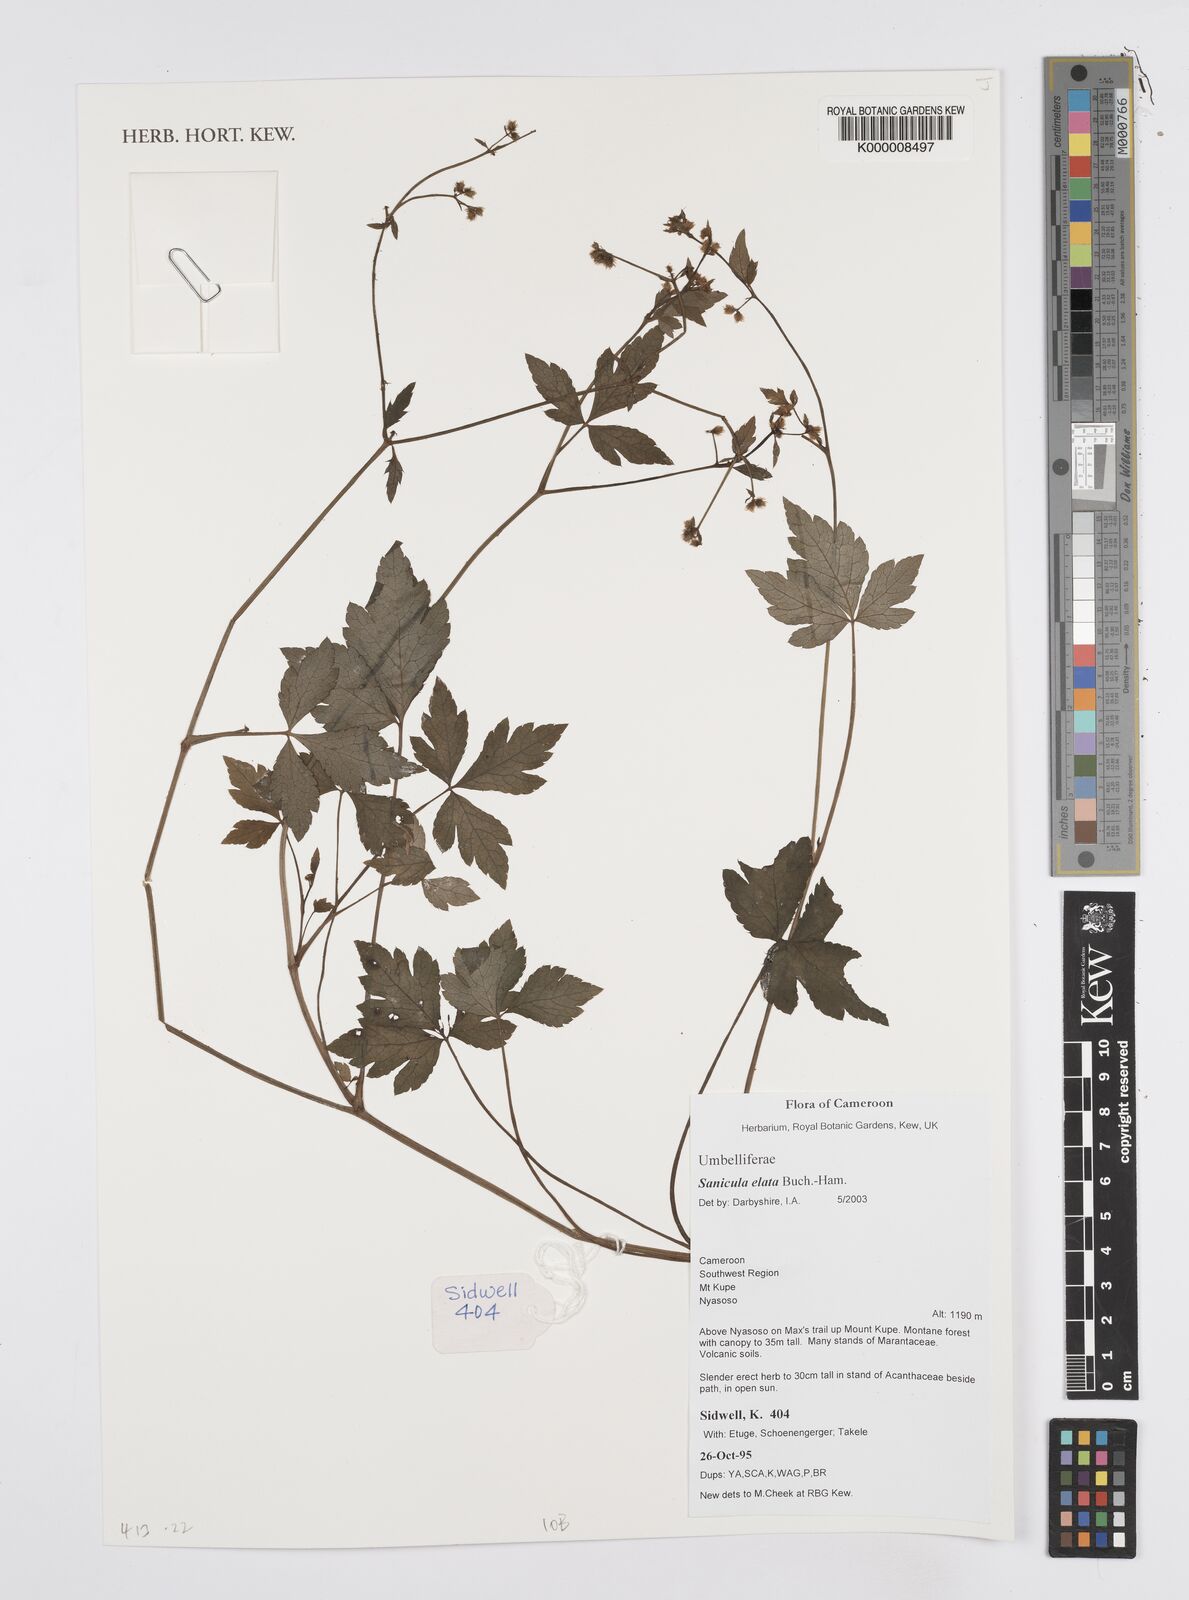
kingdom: Plantae
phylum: Tracheophyta
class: Magnoliopsida
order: Apiales
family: Apiaceae
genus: Sanicula
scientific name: Sanicula
